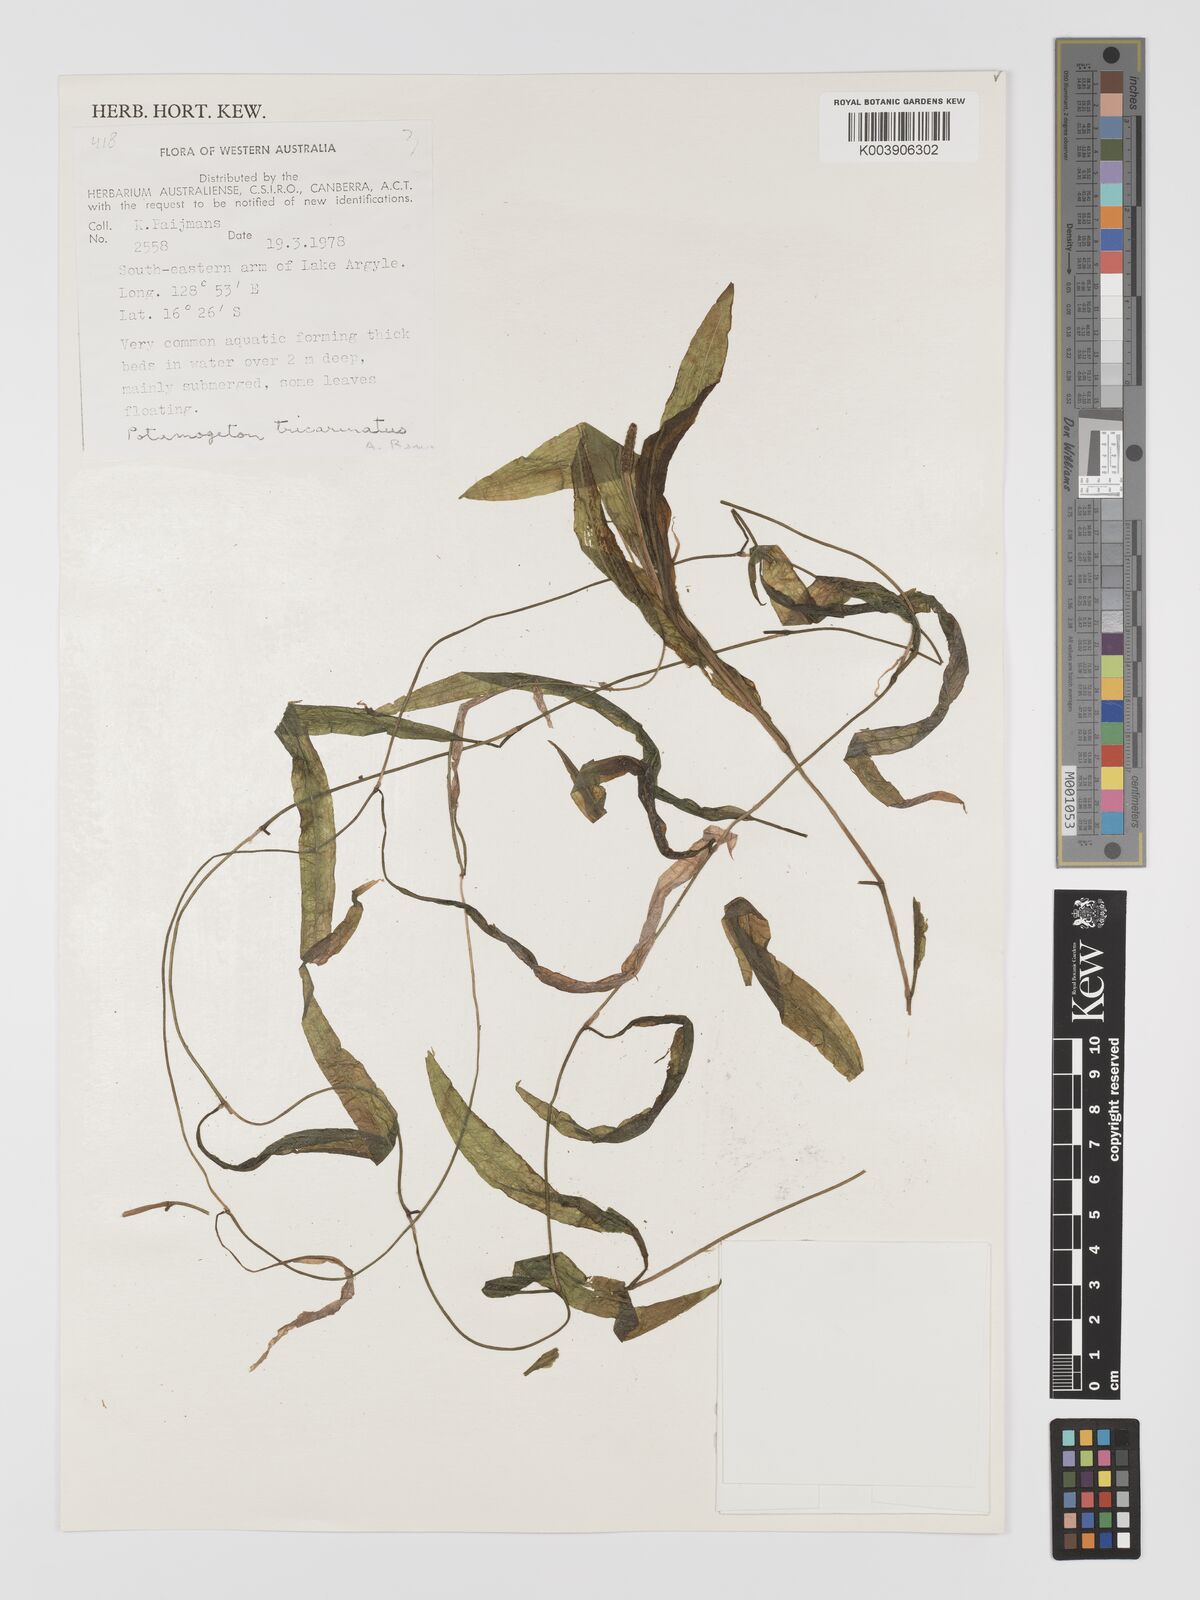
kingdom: Plantae
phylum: Tracheophyta
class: Liliopsida
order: Alismatales
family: Potamogetonaceae
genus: Potamogeton
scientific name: Potamogeton nodosus
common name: Loddon pondweed
